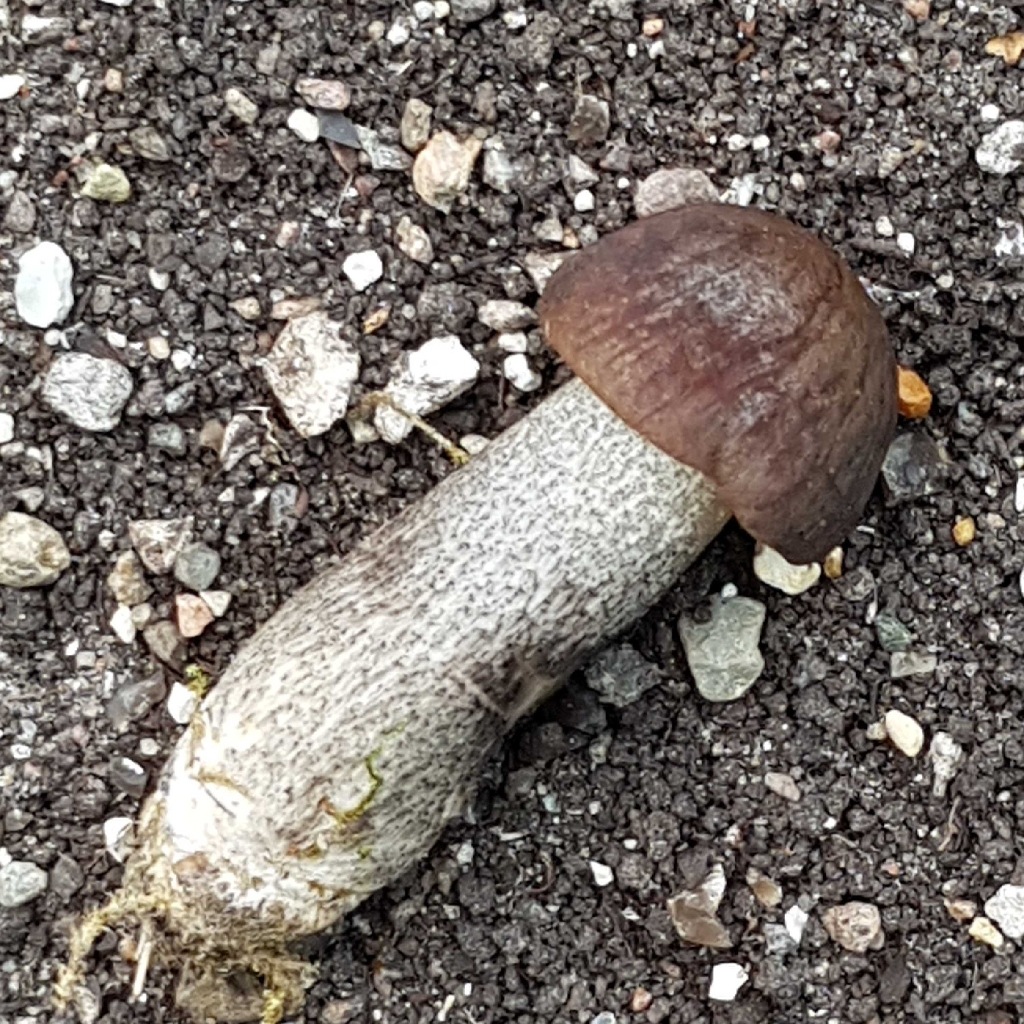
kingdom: Fungi
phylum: Basidiomycota
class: Agaricomycetes
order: Boletales
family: Boletaceae
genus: Leccinum
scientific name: Leccinum
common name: skælrørhat
